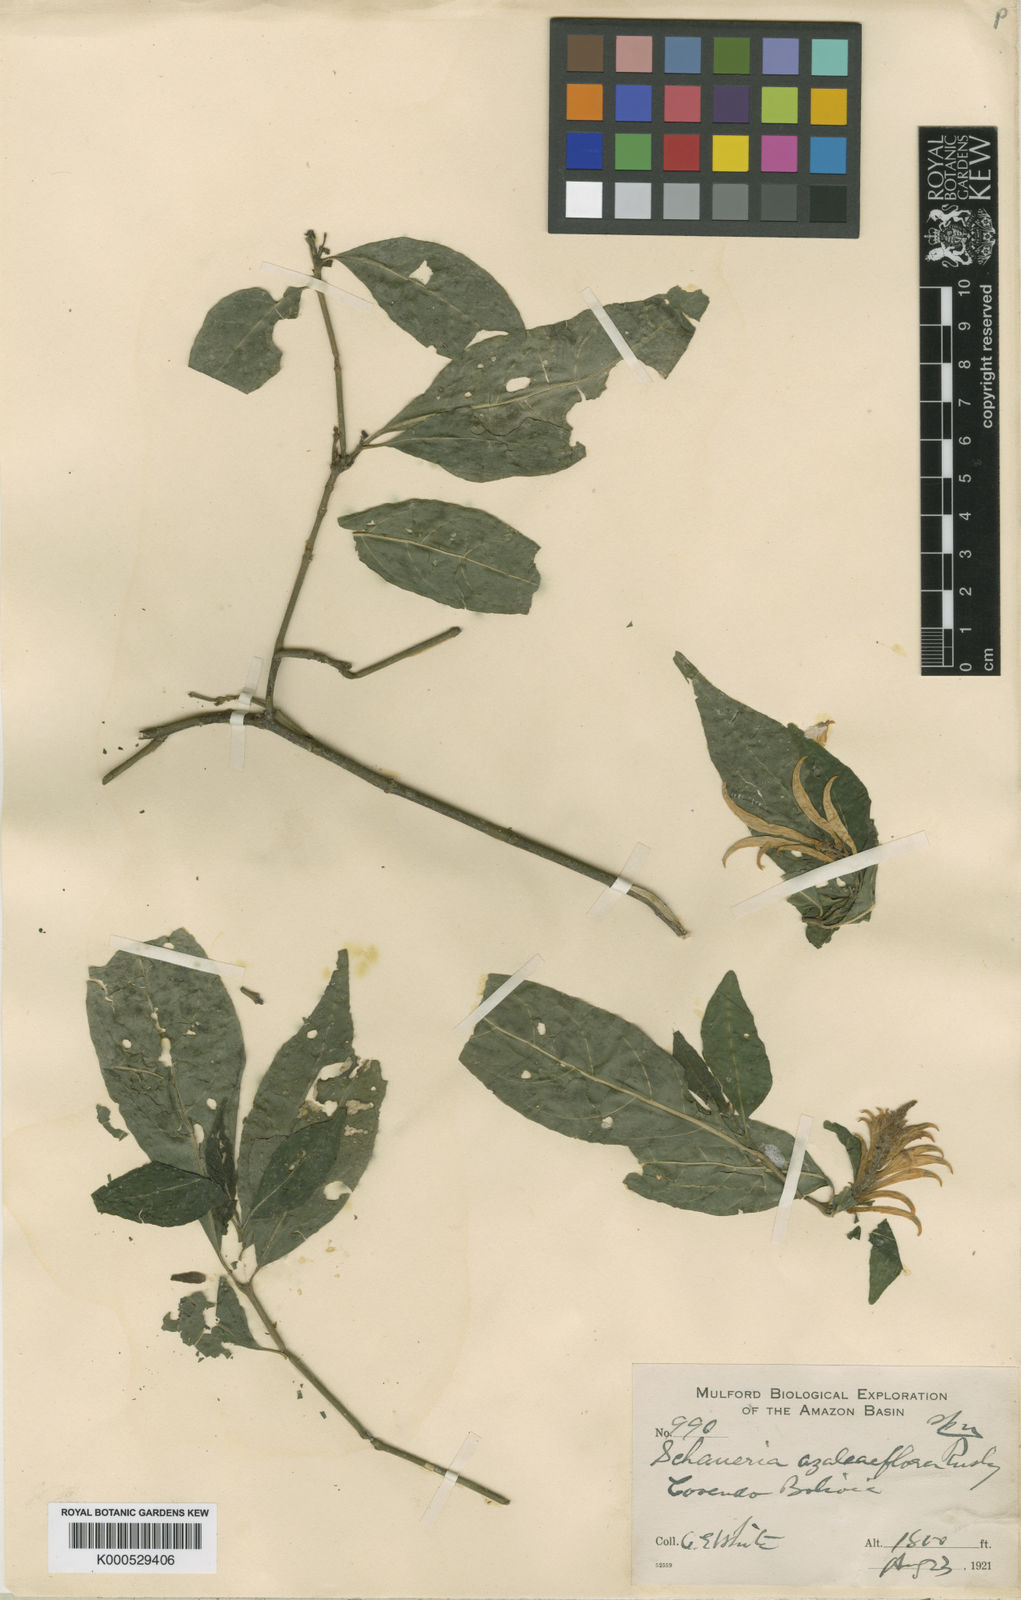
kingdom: Plantae
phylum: Tracheophyta
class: Magnoliopsida
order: Lamiales
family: Acanthaceae
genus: Pachystachys
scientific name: Pachystachys azaleiflora
